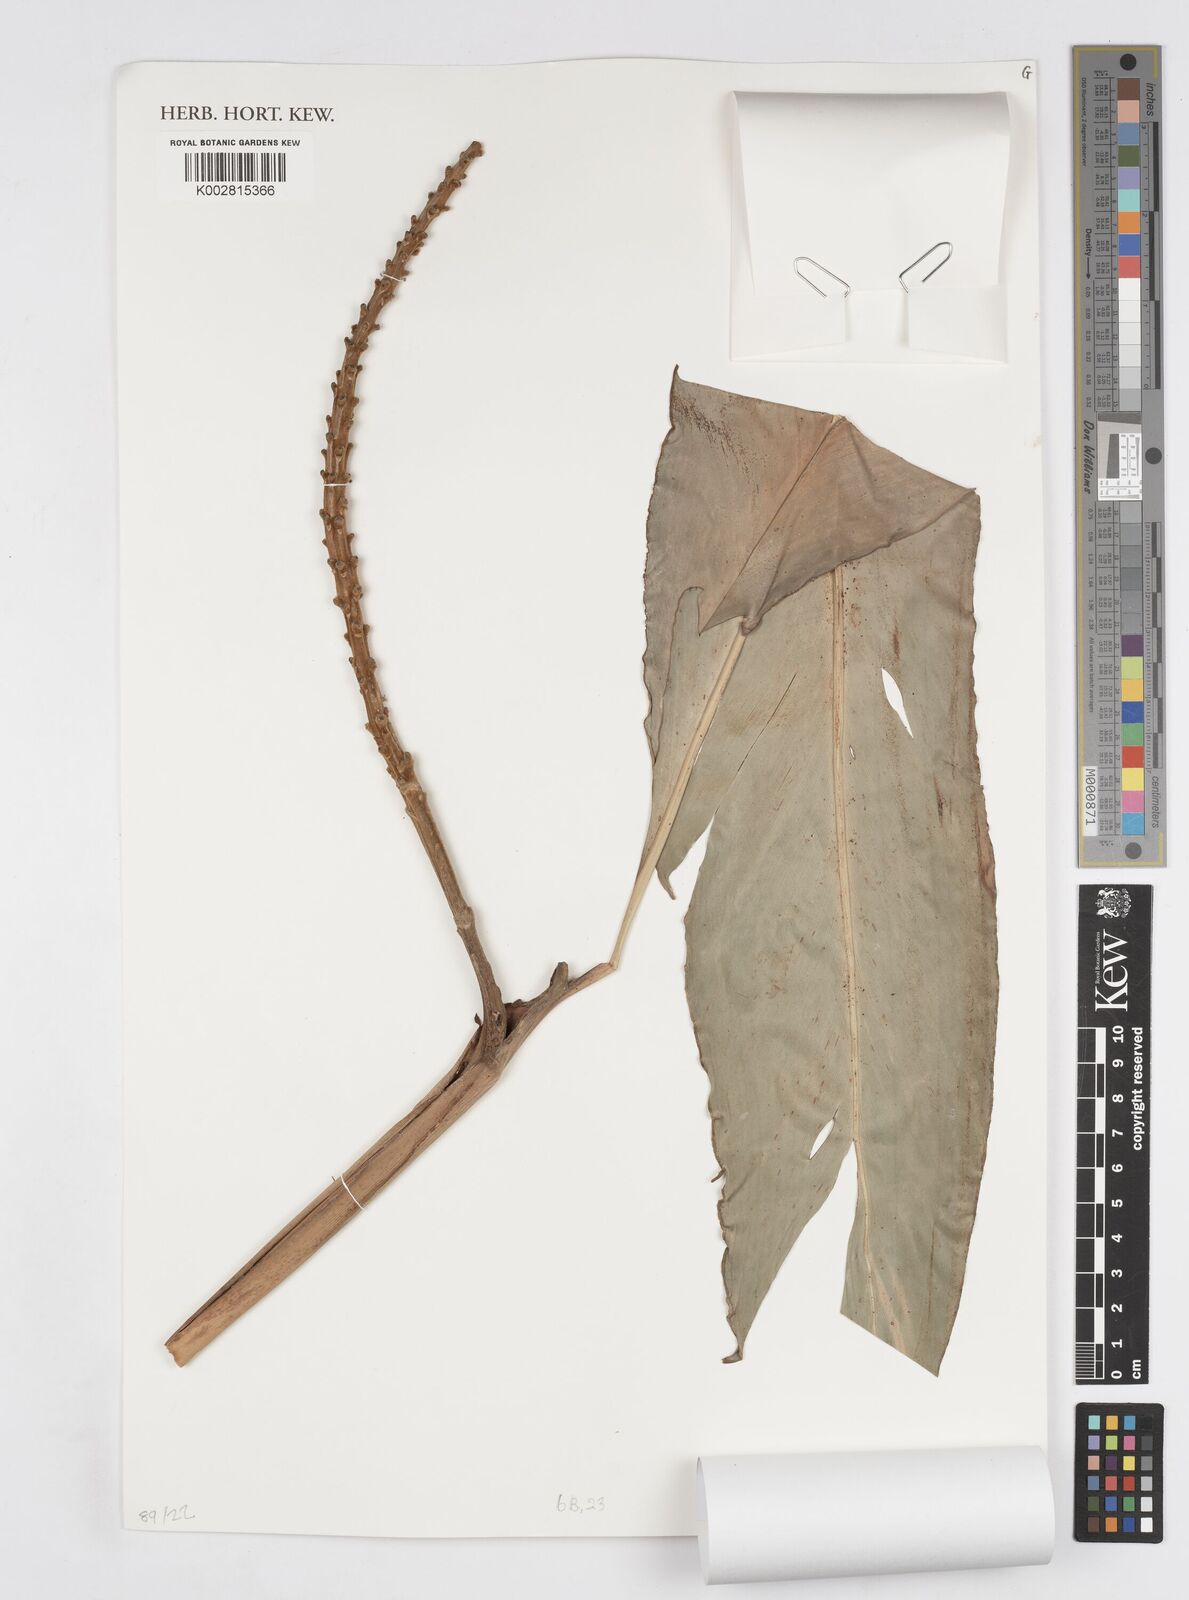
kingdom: Plantae
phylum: Tracheophyta
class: Liliopsida
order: Zingiberales
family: Zingiberaceae
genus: Alpinia
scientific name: Alpinia roxburghii
